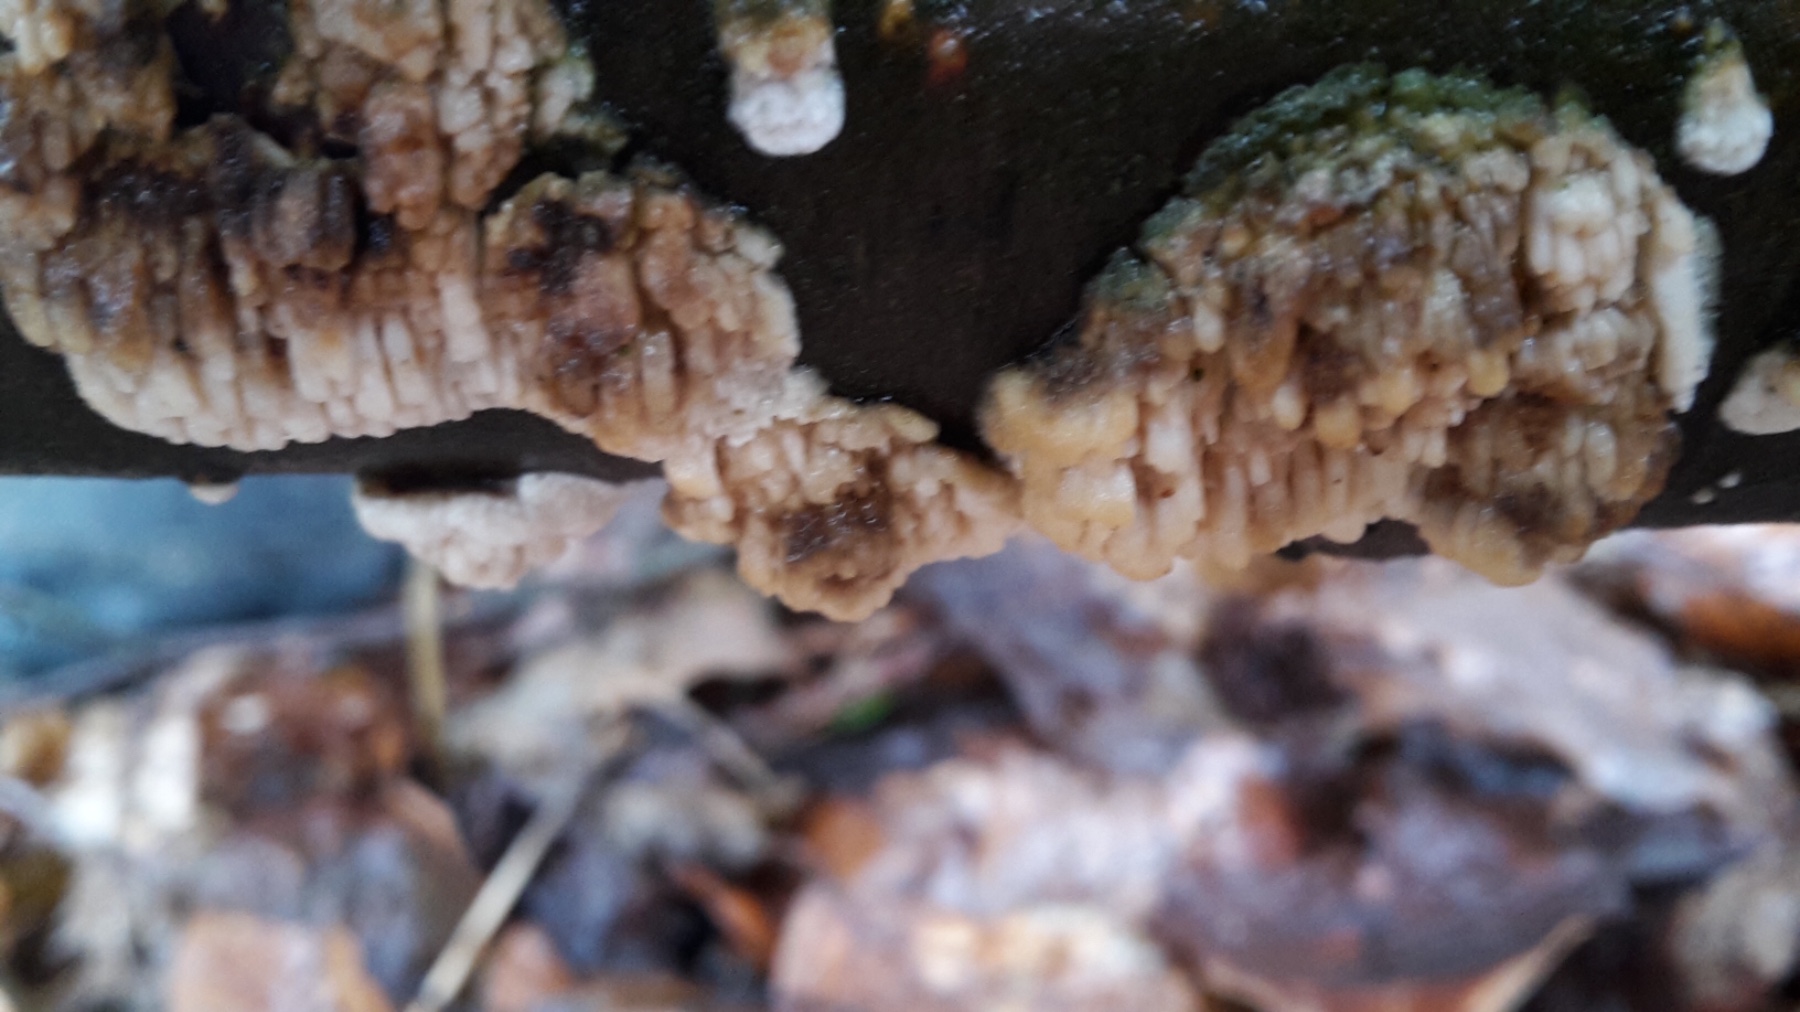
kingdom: Fungi
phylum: Basidiomycota
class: Agaricomycetes
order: Hymenochaetales
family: Schizoporaceae
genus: Xylodon
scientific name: Xylodon radula
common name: grovtandet kalkskind
